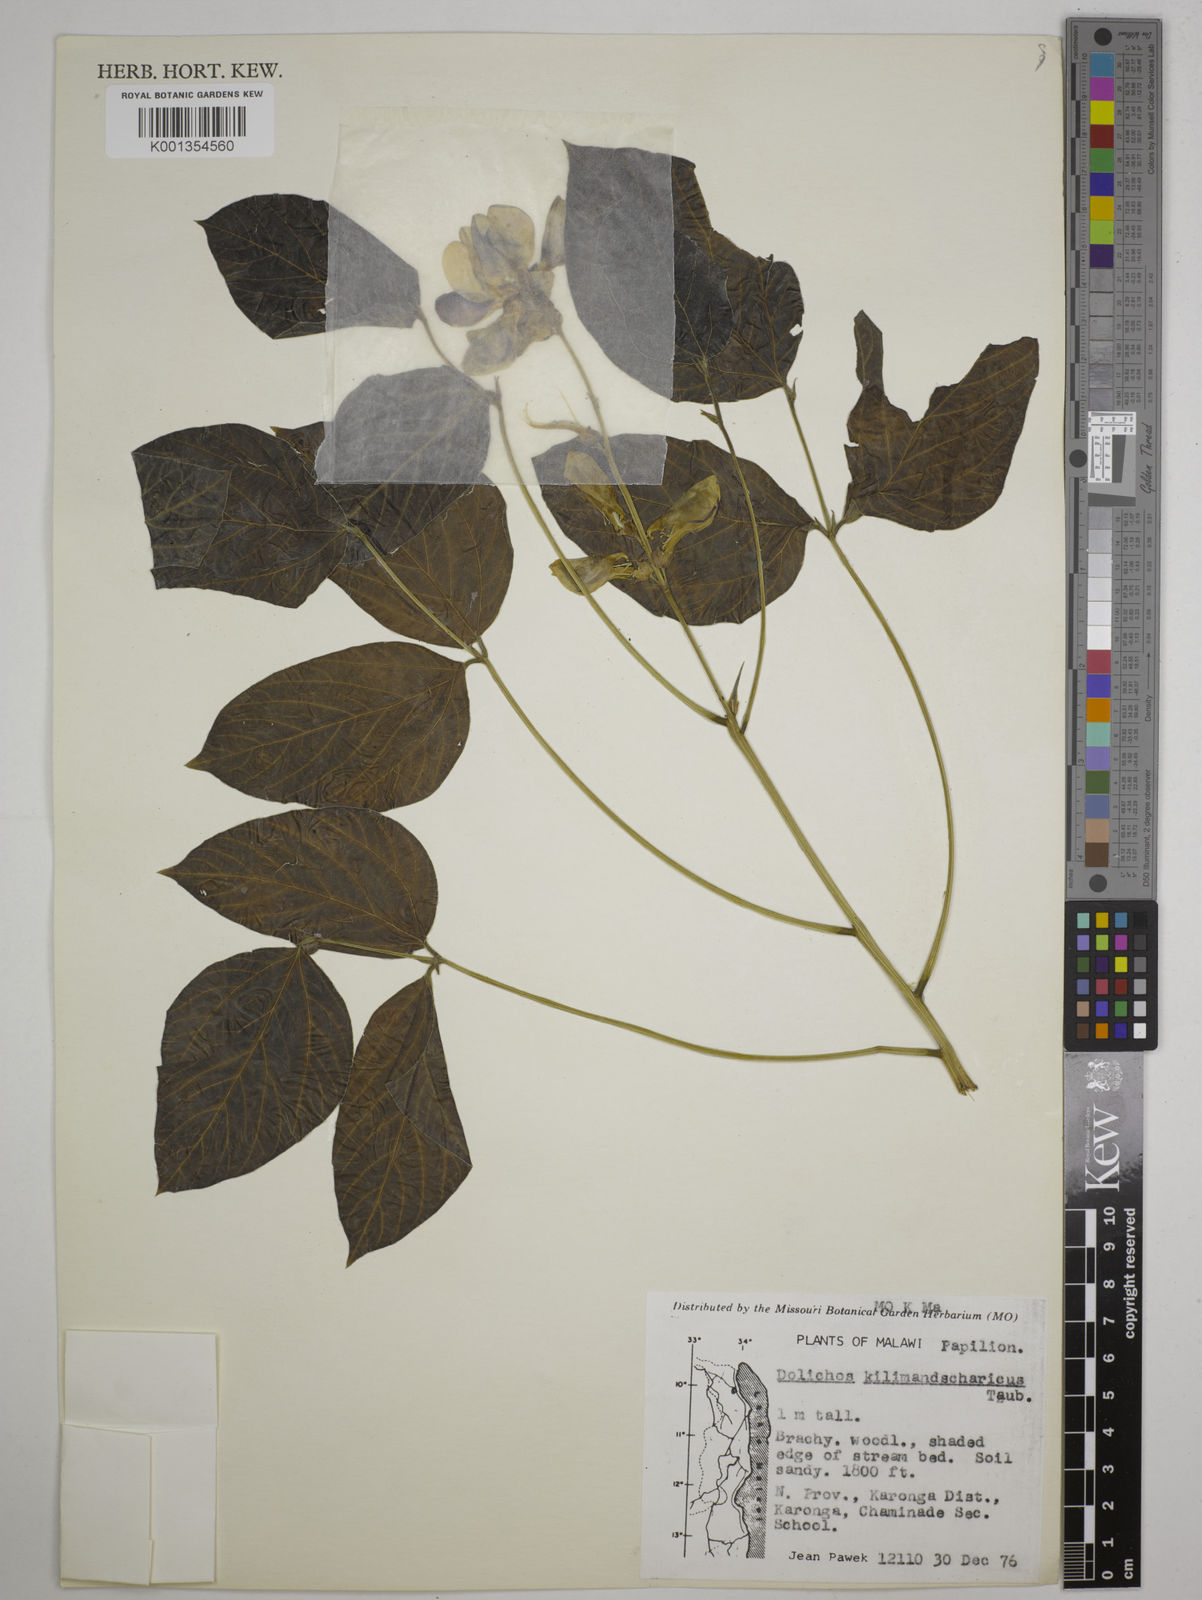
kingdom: Plantae
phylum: Tracheophyta
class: Magnoliopsida
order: Fabales
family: Fabaceae
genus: Dolichos
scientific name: Dolichos kilimandscharicus
